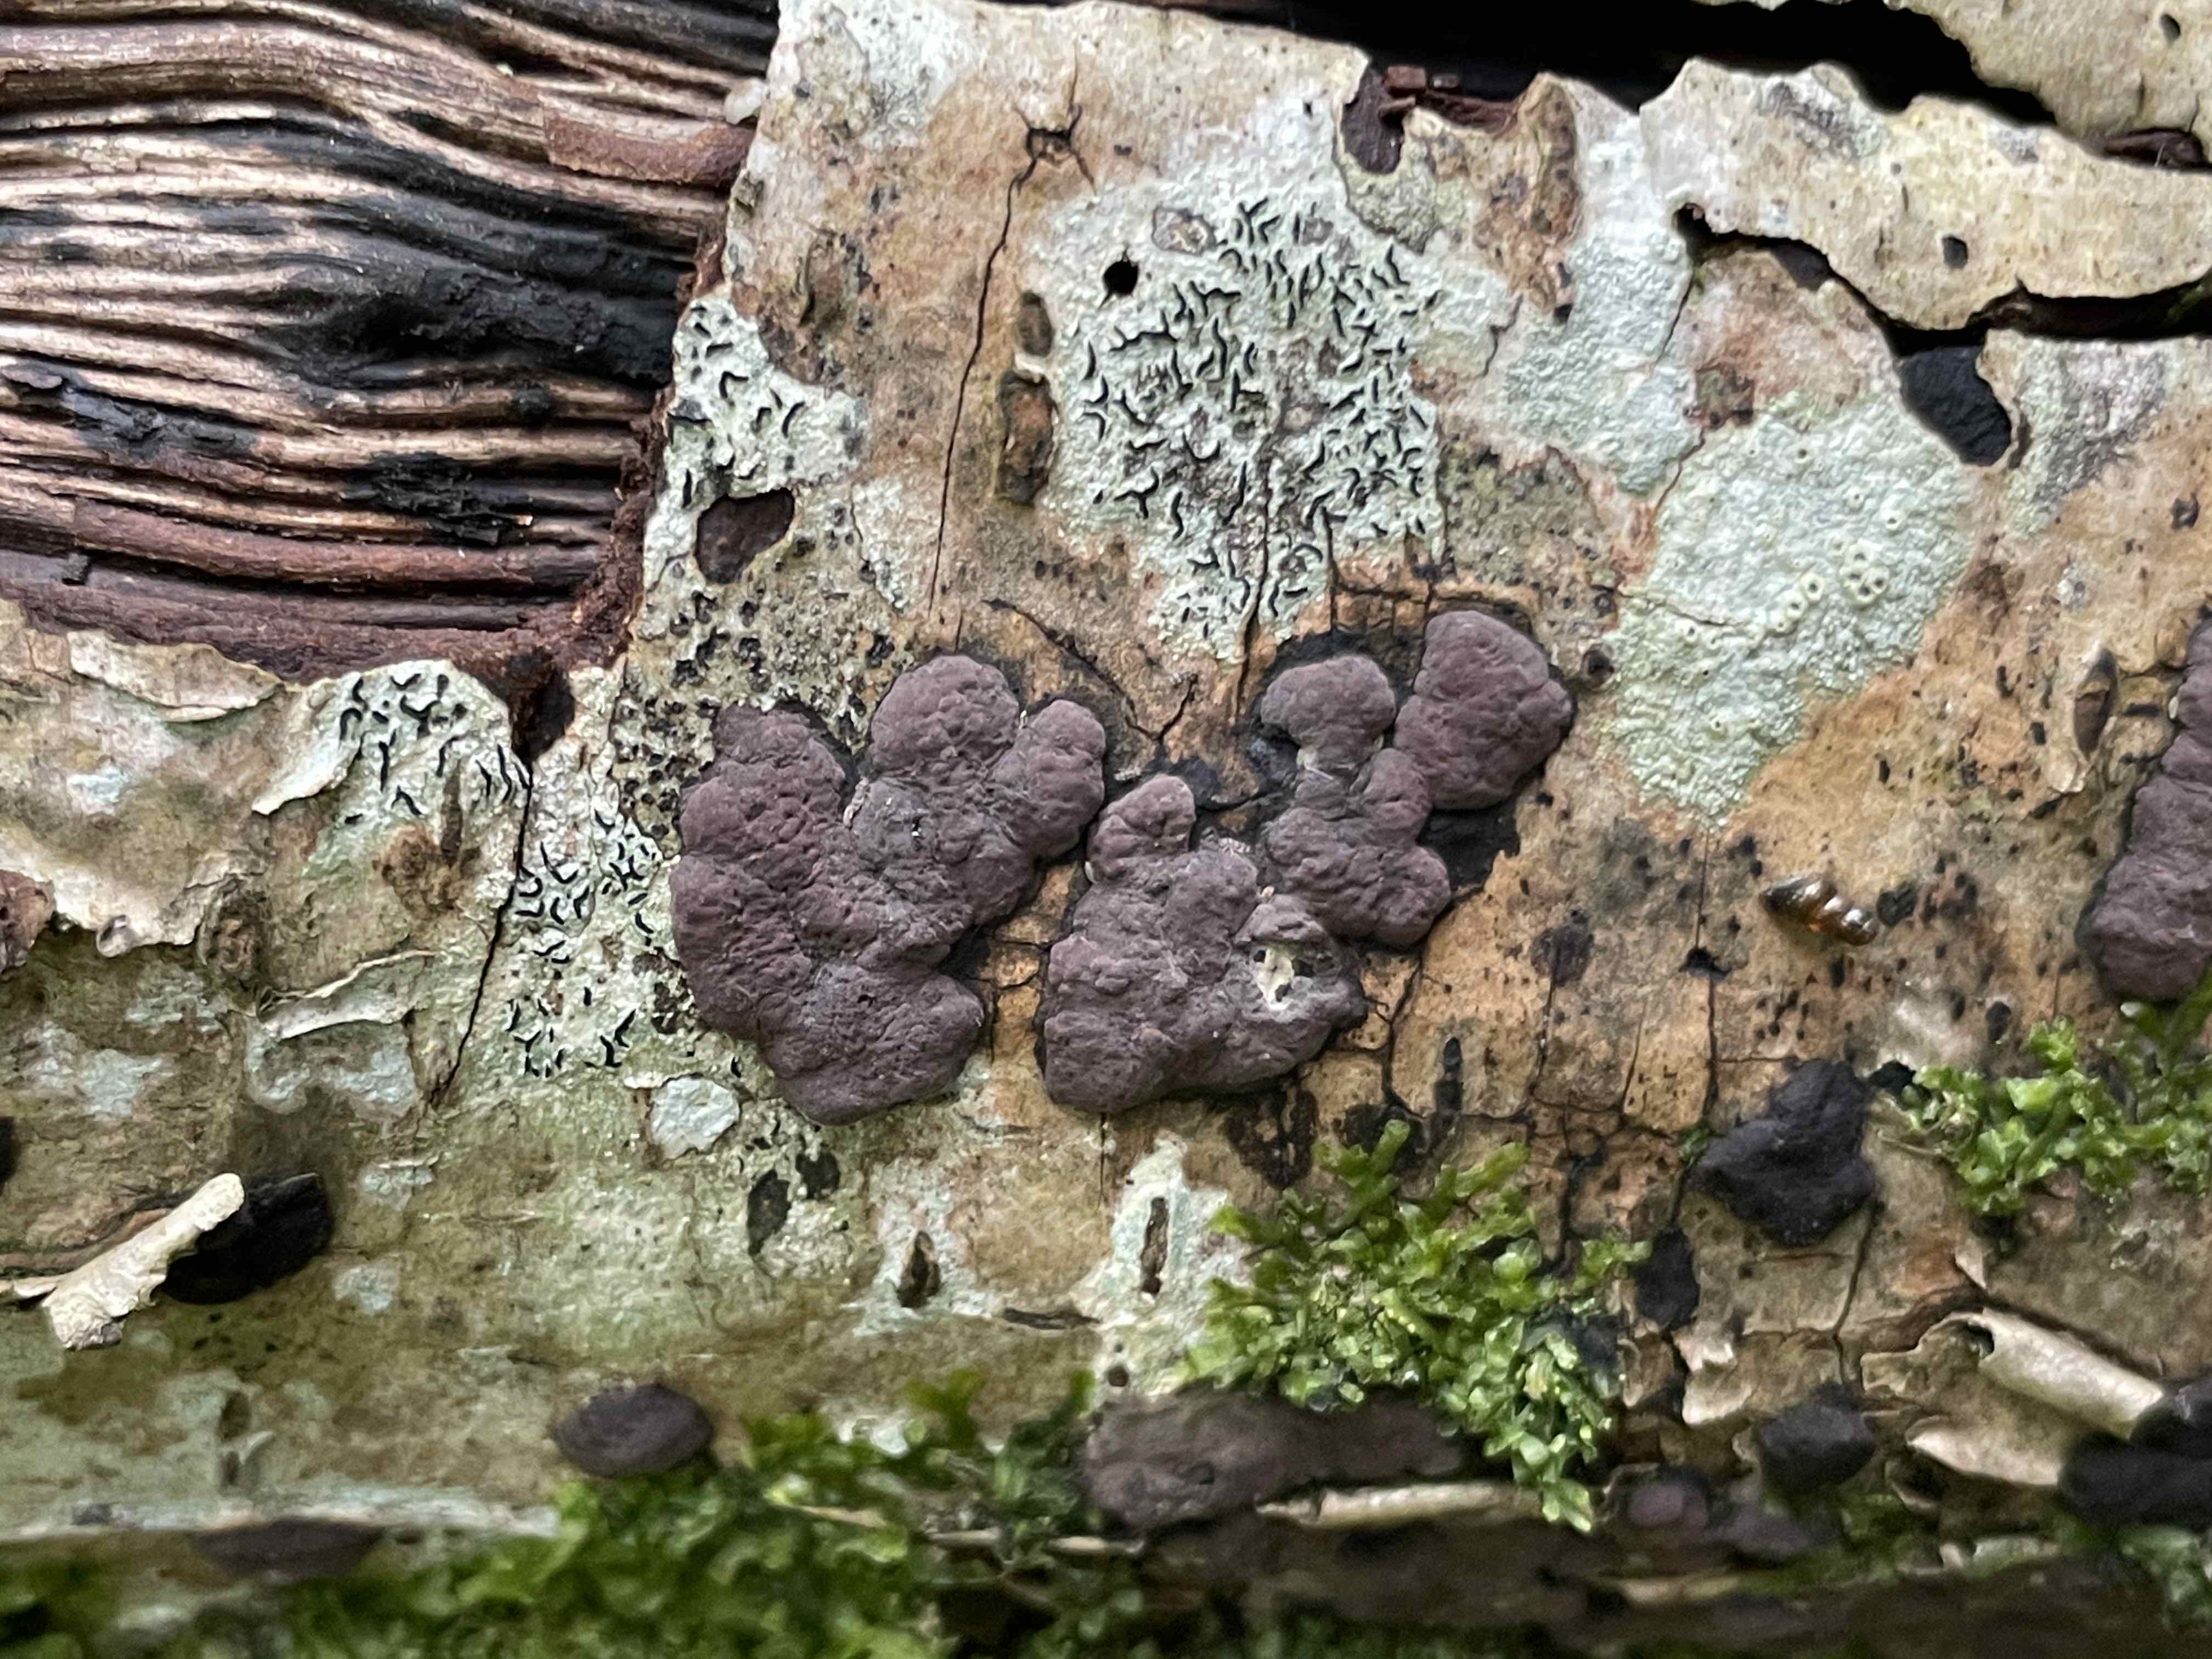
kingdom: Fungi
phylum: Ascomycota
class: Sordariomycetes
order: Xylariales
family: Hypoxylaceae
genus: Jackrogersella
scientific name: Jackrogersella multiformis
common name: foranderlig kulbær
